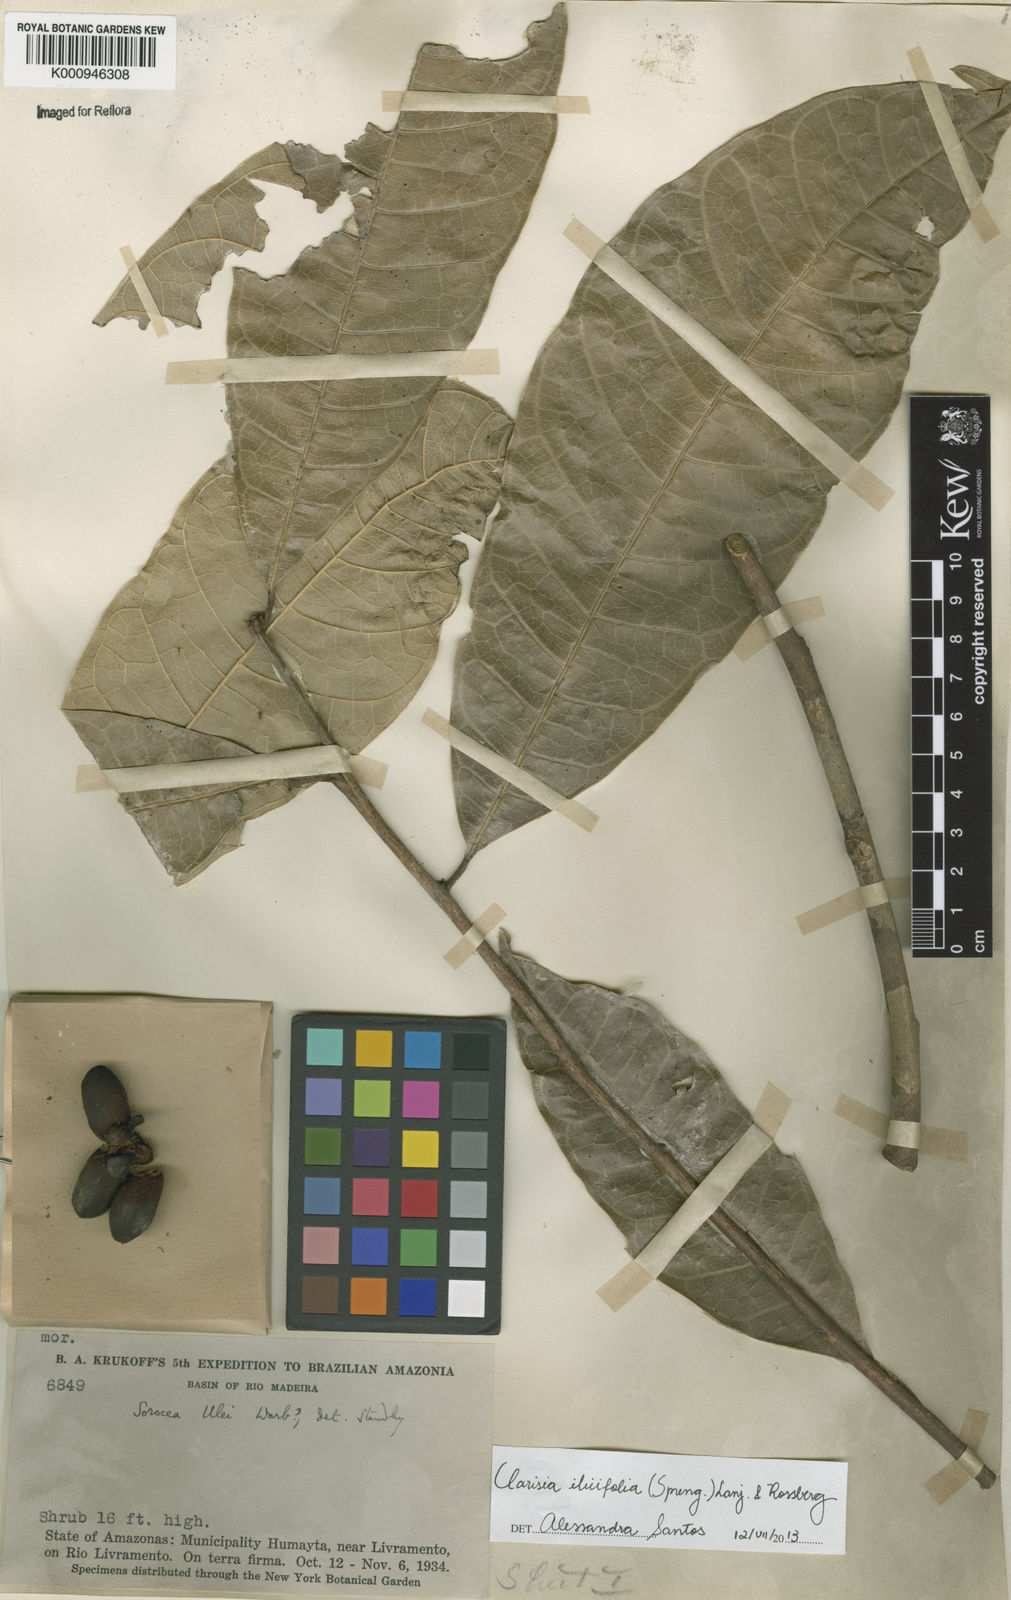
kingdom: Plantae
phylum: Tracheophyta
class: Magnoliopsida
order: Rosales
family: Moraceae
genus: Clarisia
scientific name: Clarisia ilicifolia
